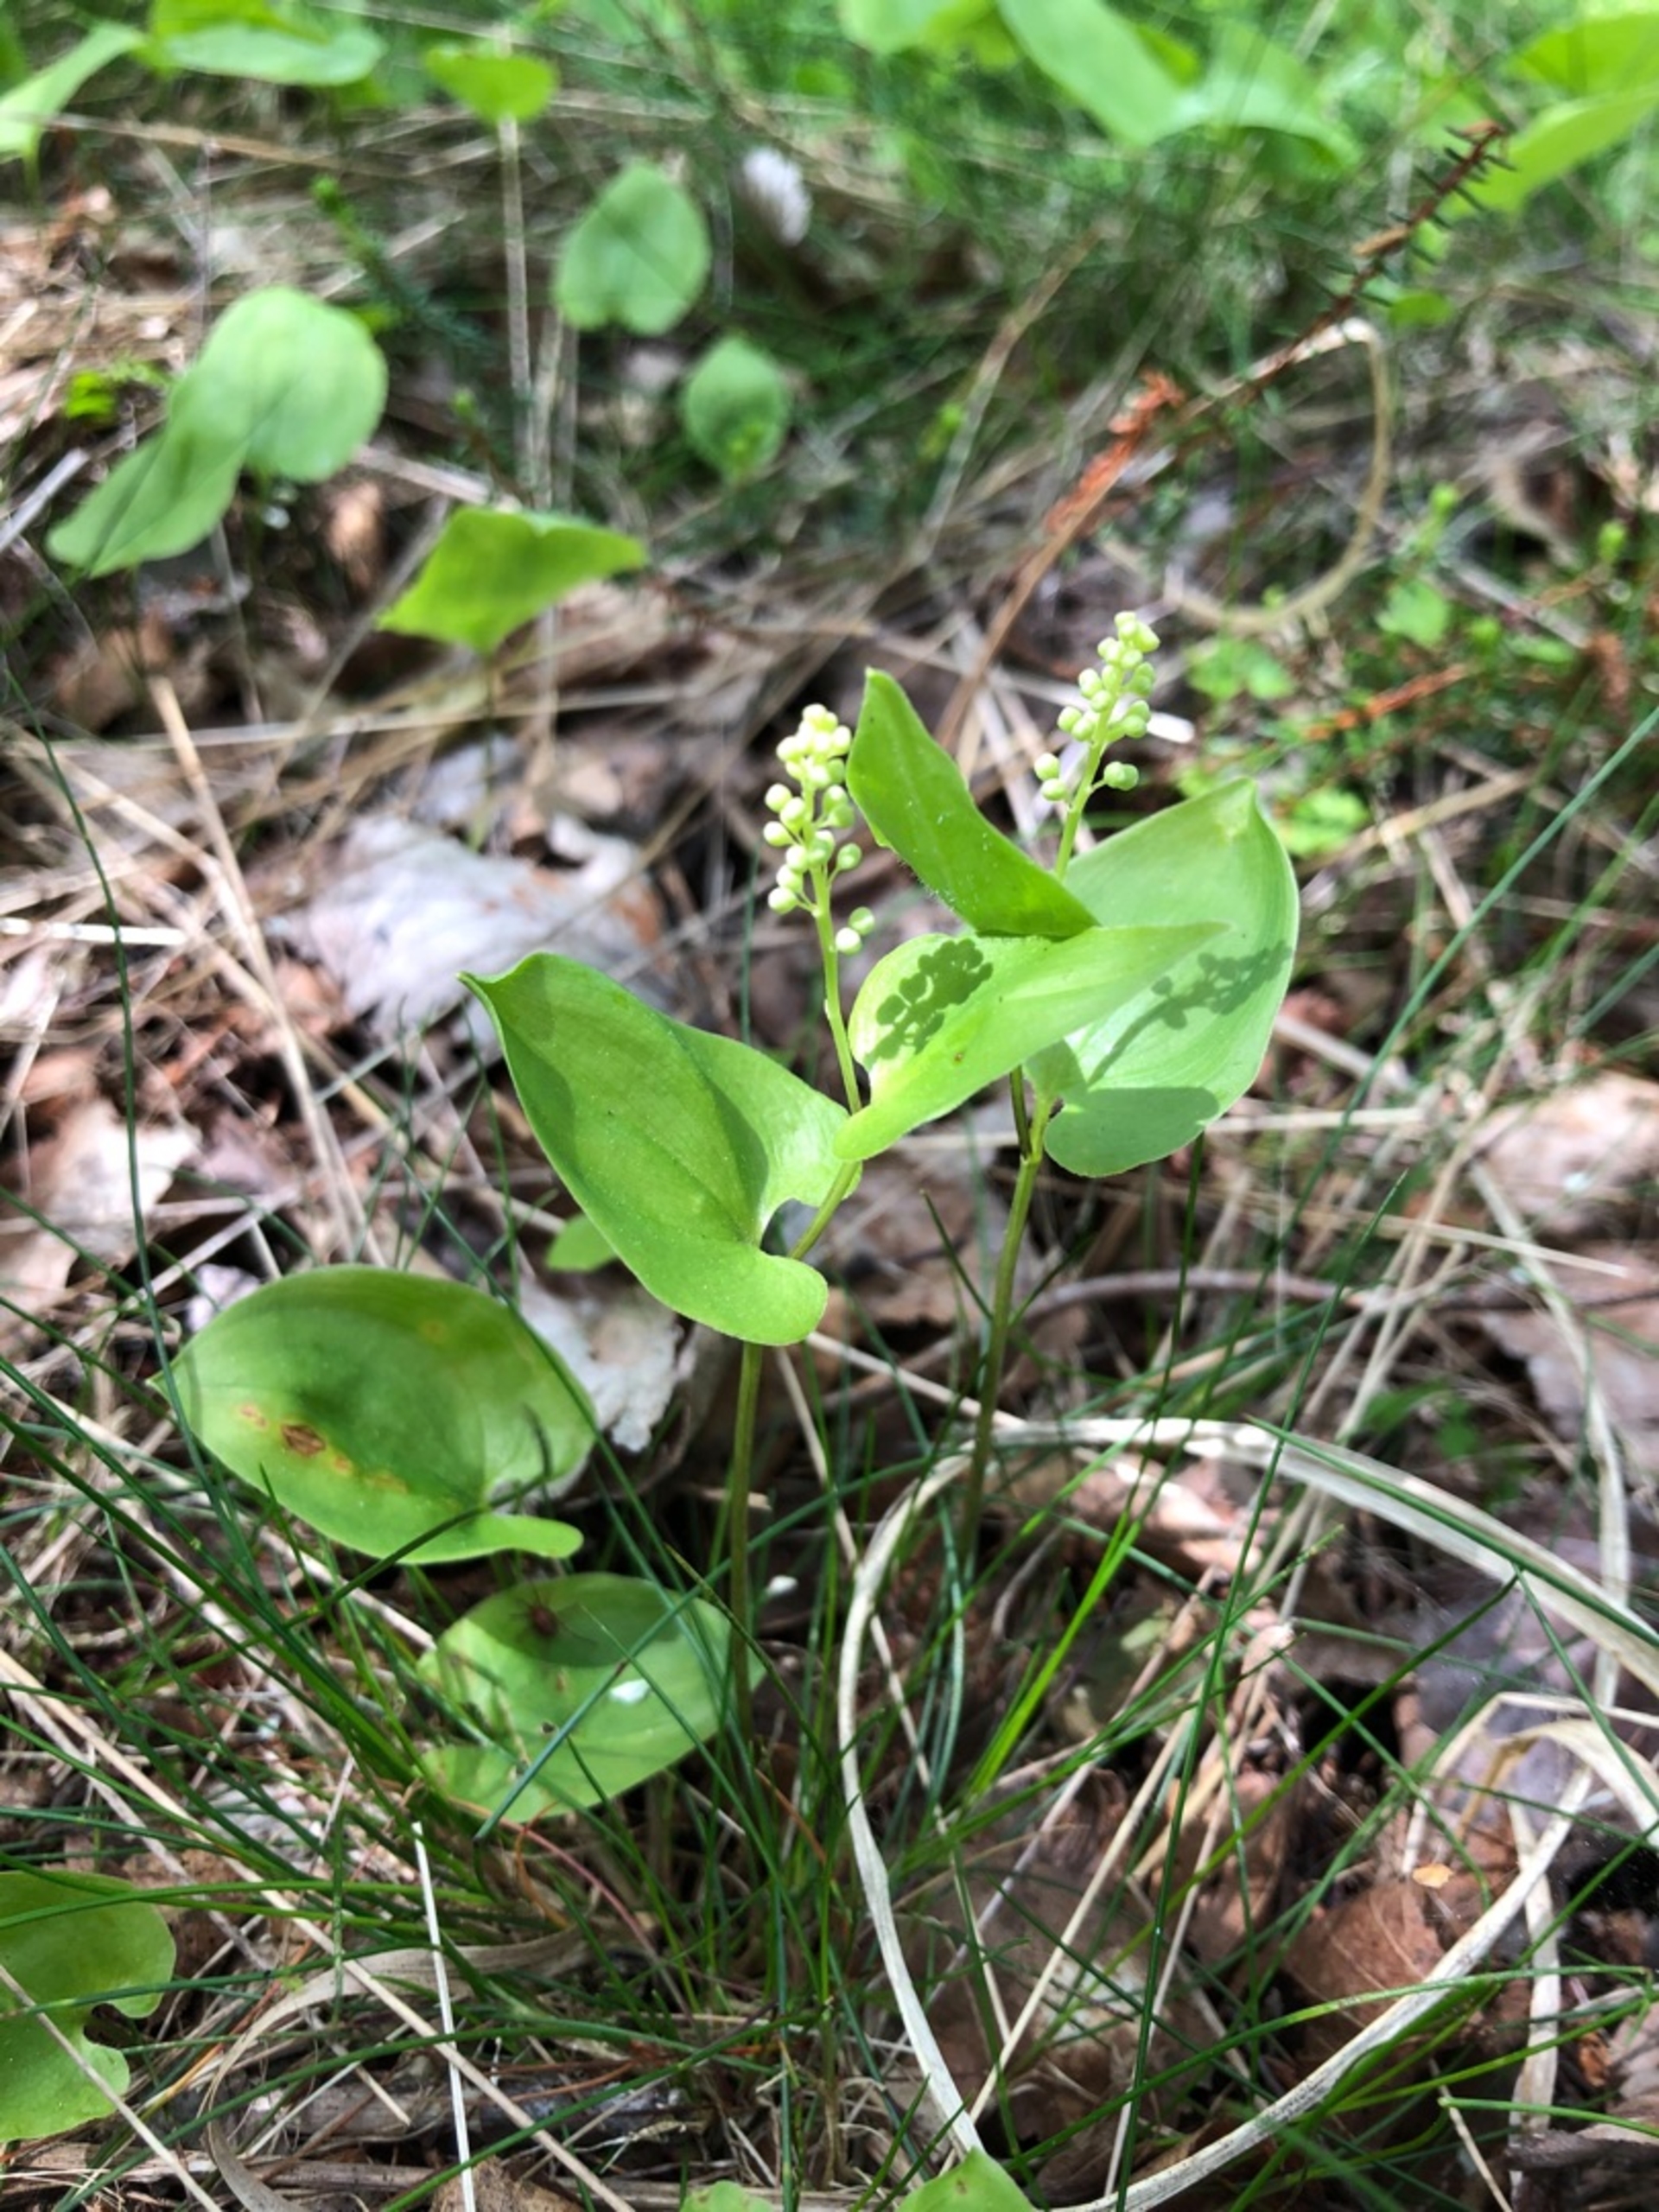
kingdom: Plantae
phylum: Tracheophyta
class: Liliopsida
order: Asparagales
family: Asparagaceae
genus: Maianthemum
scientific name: Maianthemum bifolium
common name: Majblomst
